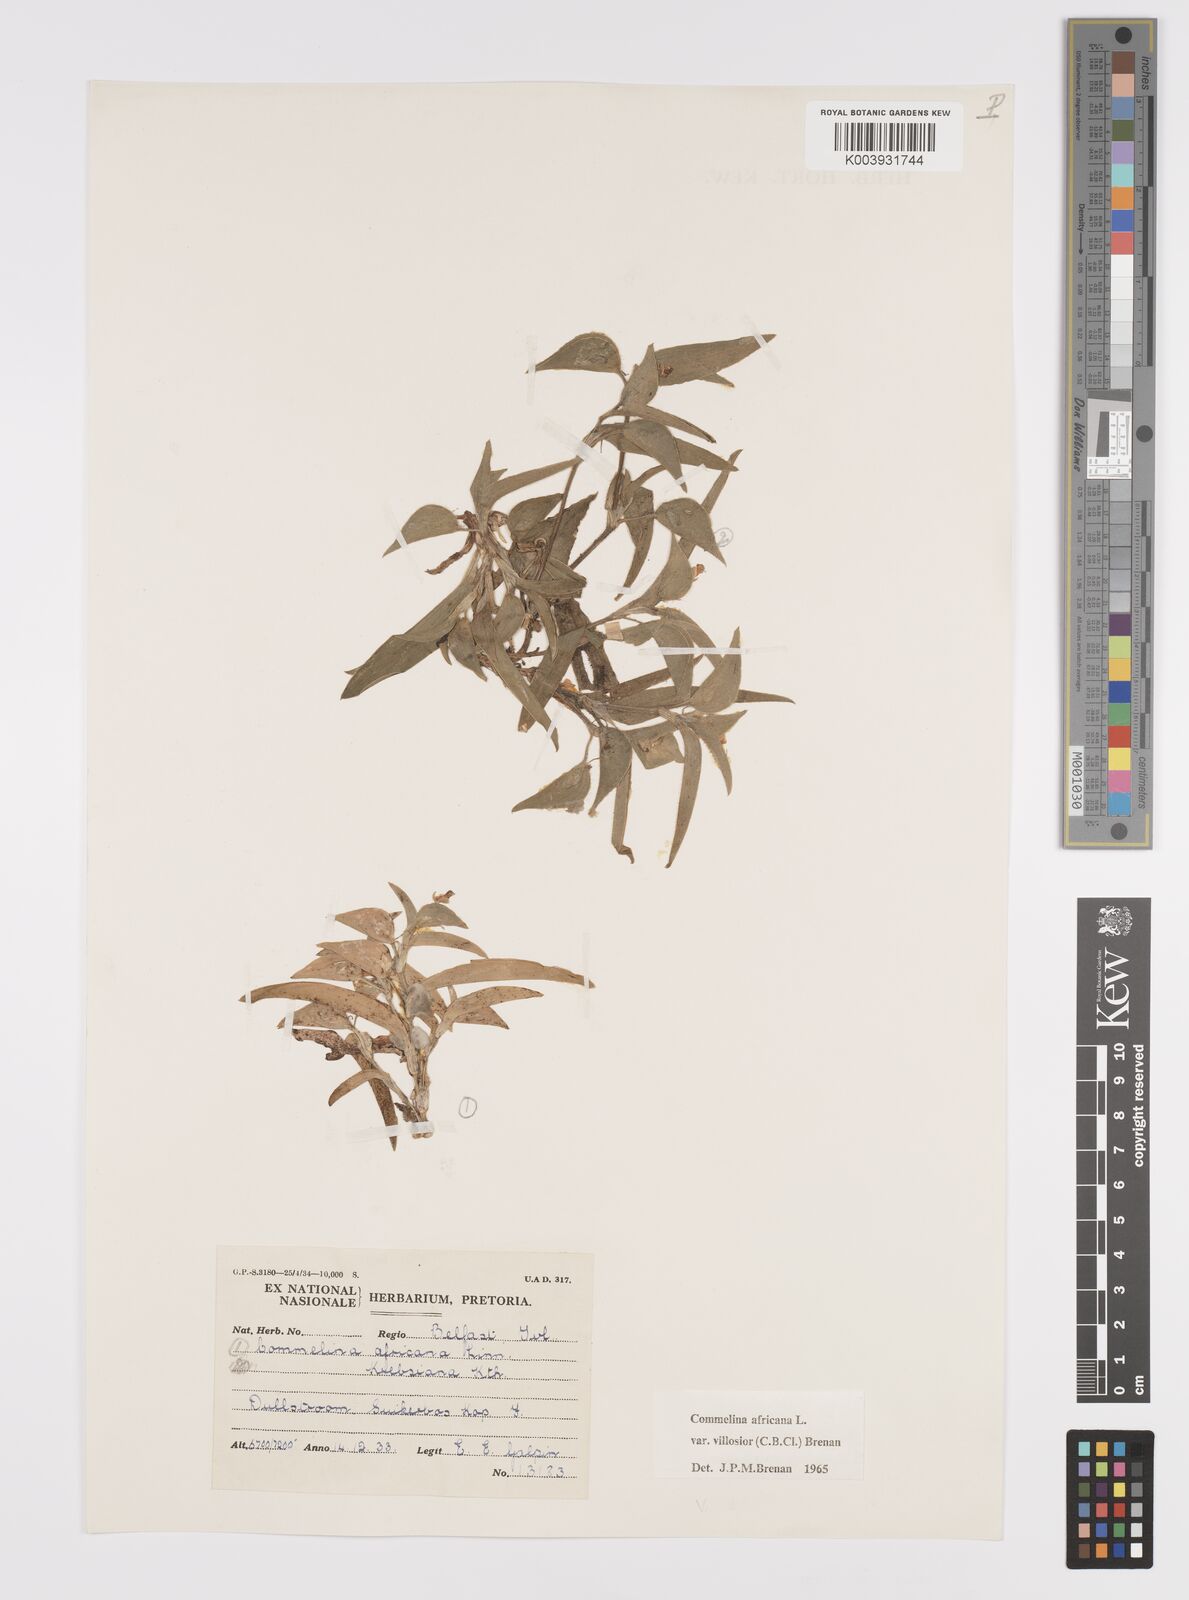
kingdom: Plantae
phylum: Tracheophyta
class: Liliopsida
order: Commelinales
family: Commelinaceae
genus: Commelina
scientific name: Commelina africana
